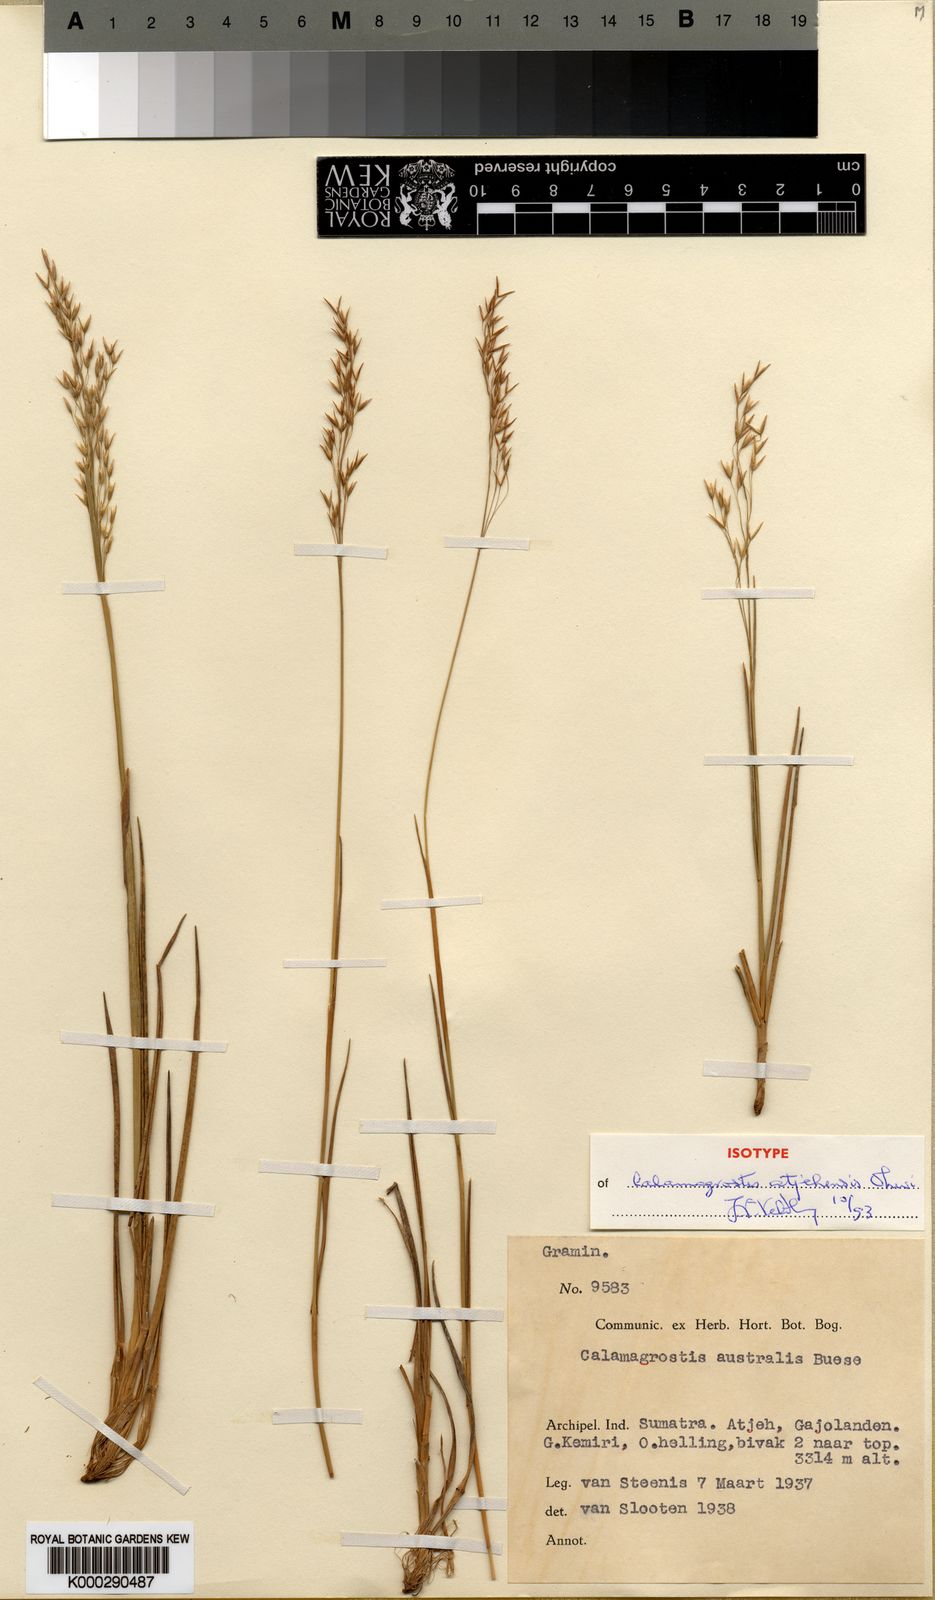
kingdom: Plantae
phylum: Tracheophyta
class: Liliopsida
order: Poales
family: Poaceae
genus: Calamagrostis
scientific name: Calamagrostis atjehensis
